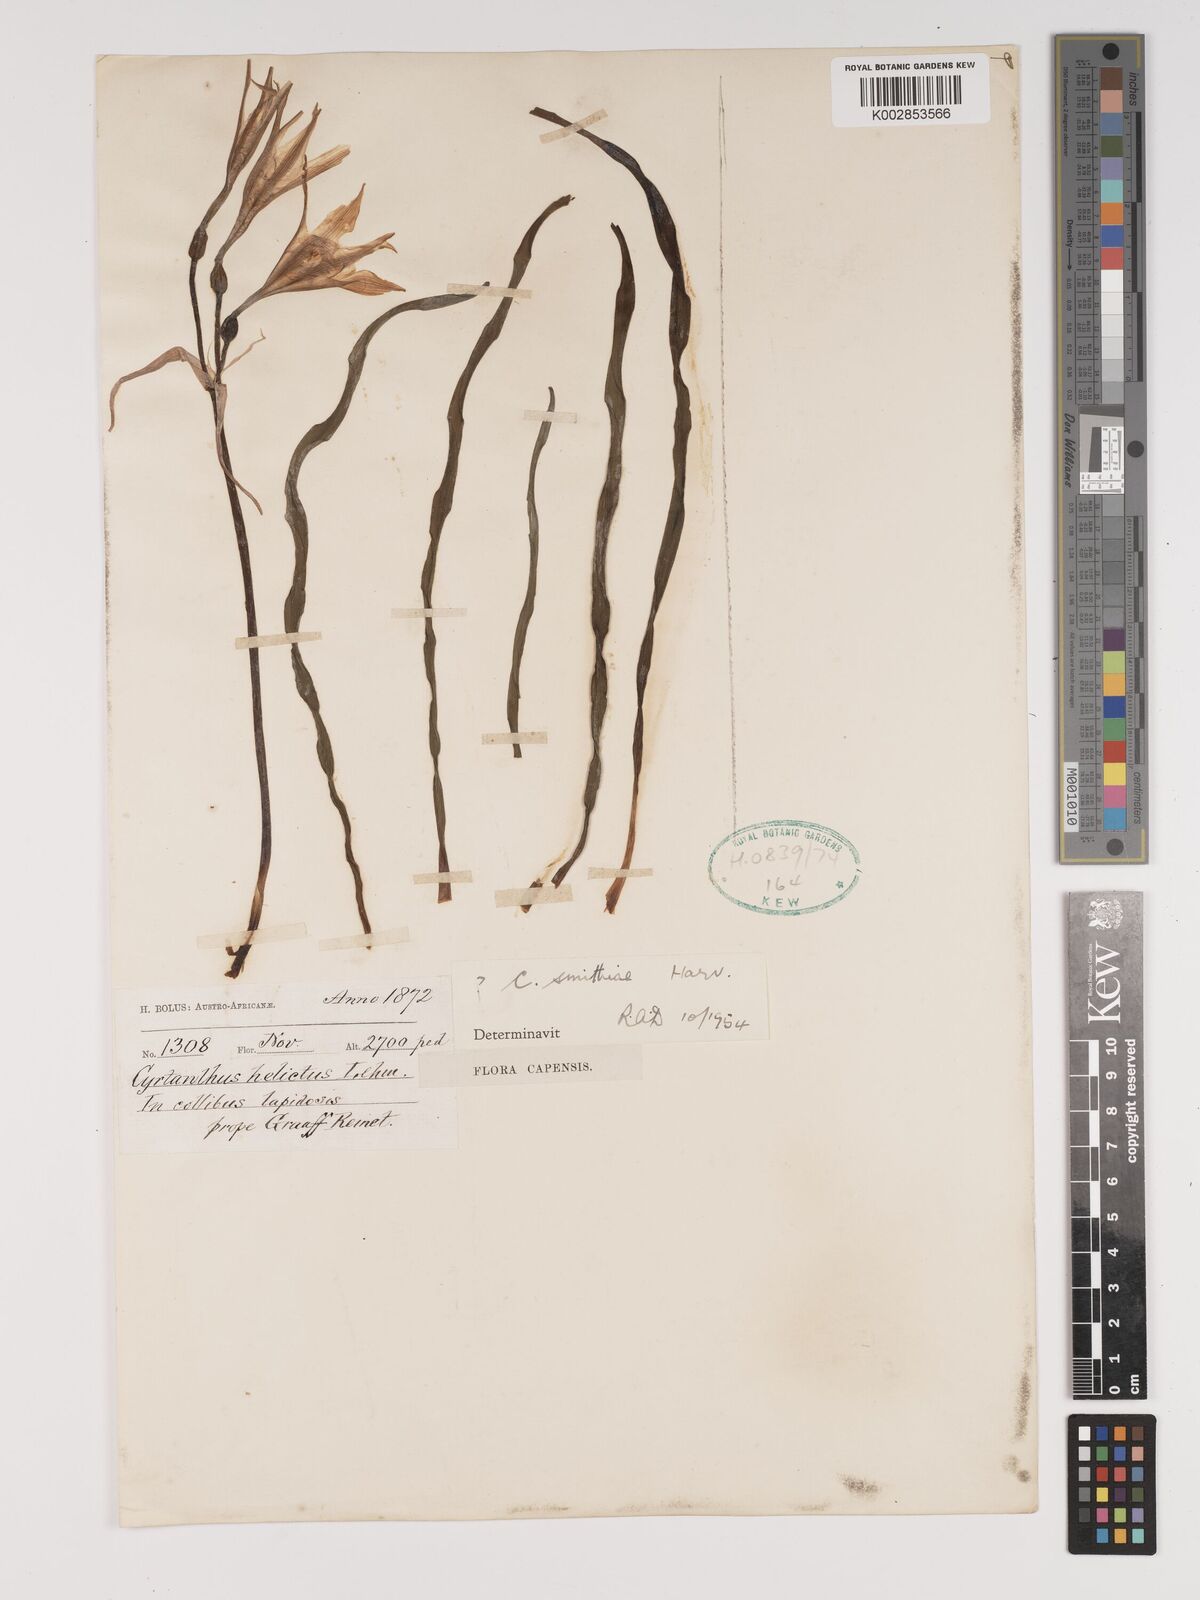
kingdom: Plantae
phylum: Tracheophyta
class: Liliopsida
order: Asparagales
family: Amaryllidaceae
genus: Cyrtanthus
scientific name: Cyrtanthus smithiae
